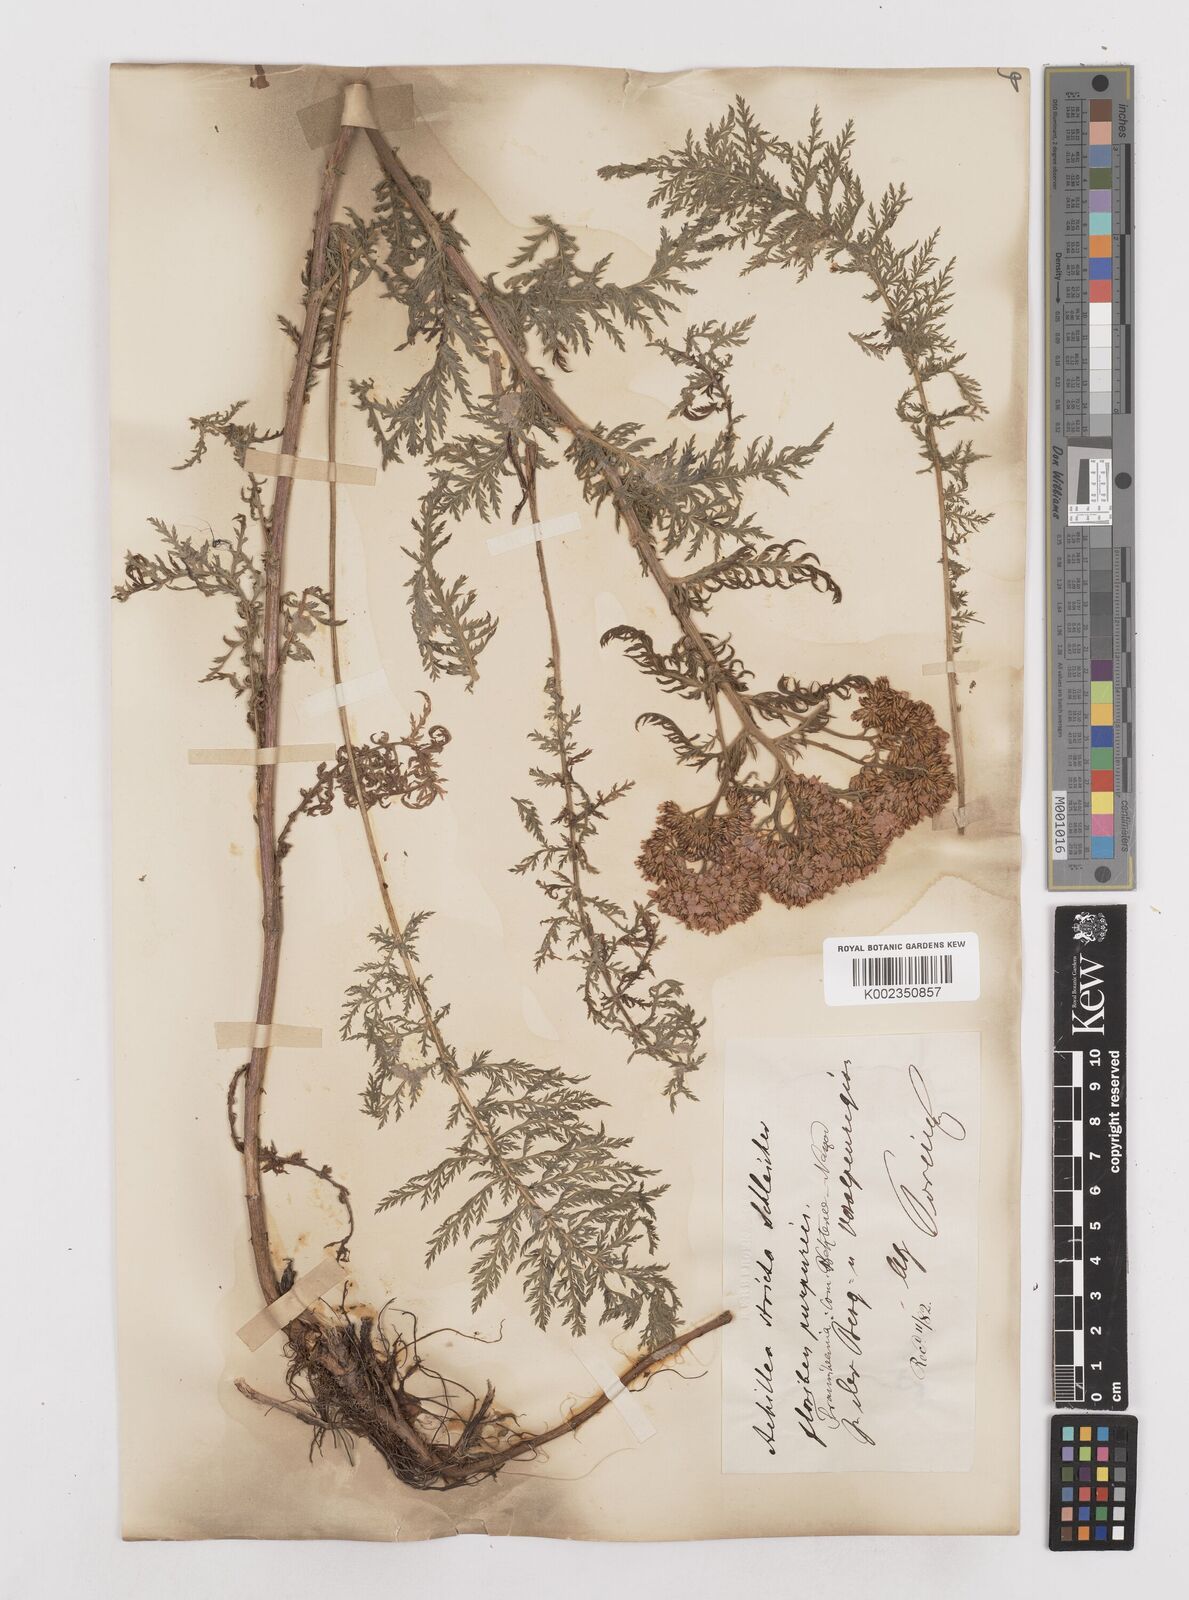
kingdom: Plantae
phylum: Tracheophyta
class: Magnoliopsida
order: Asterales
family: Asteraceae
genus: Achillea
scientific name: Achillea distans
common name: Tall yarrow
